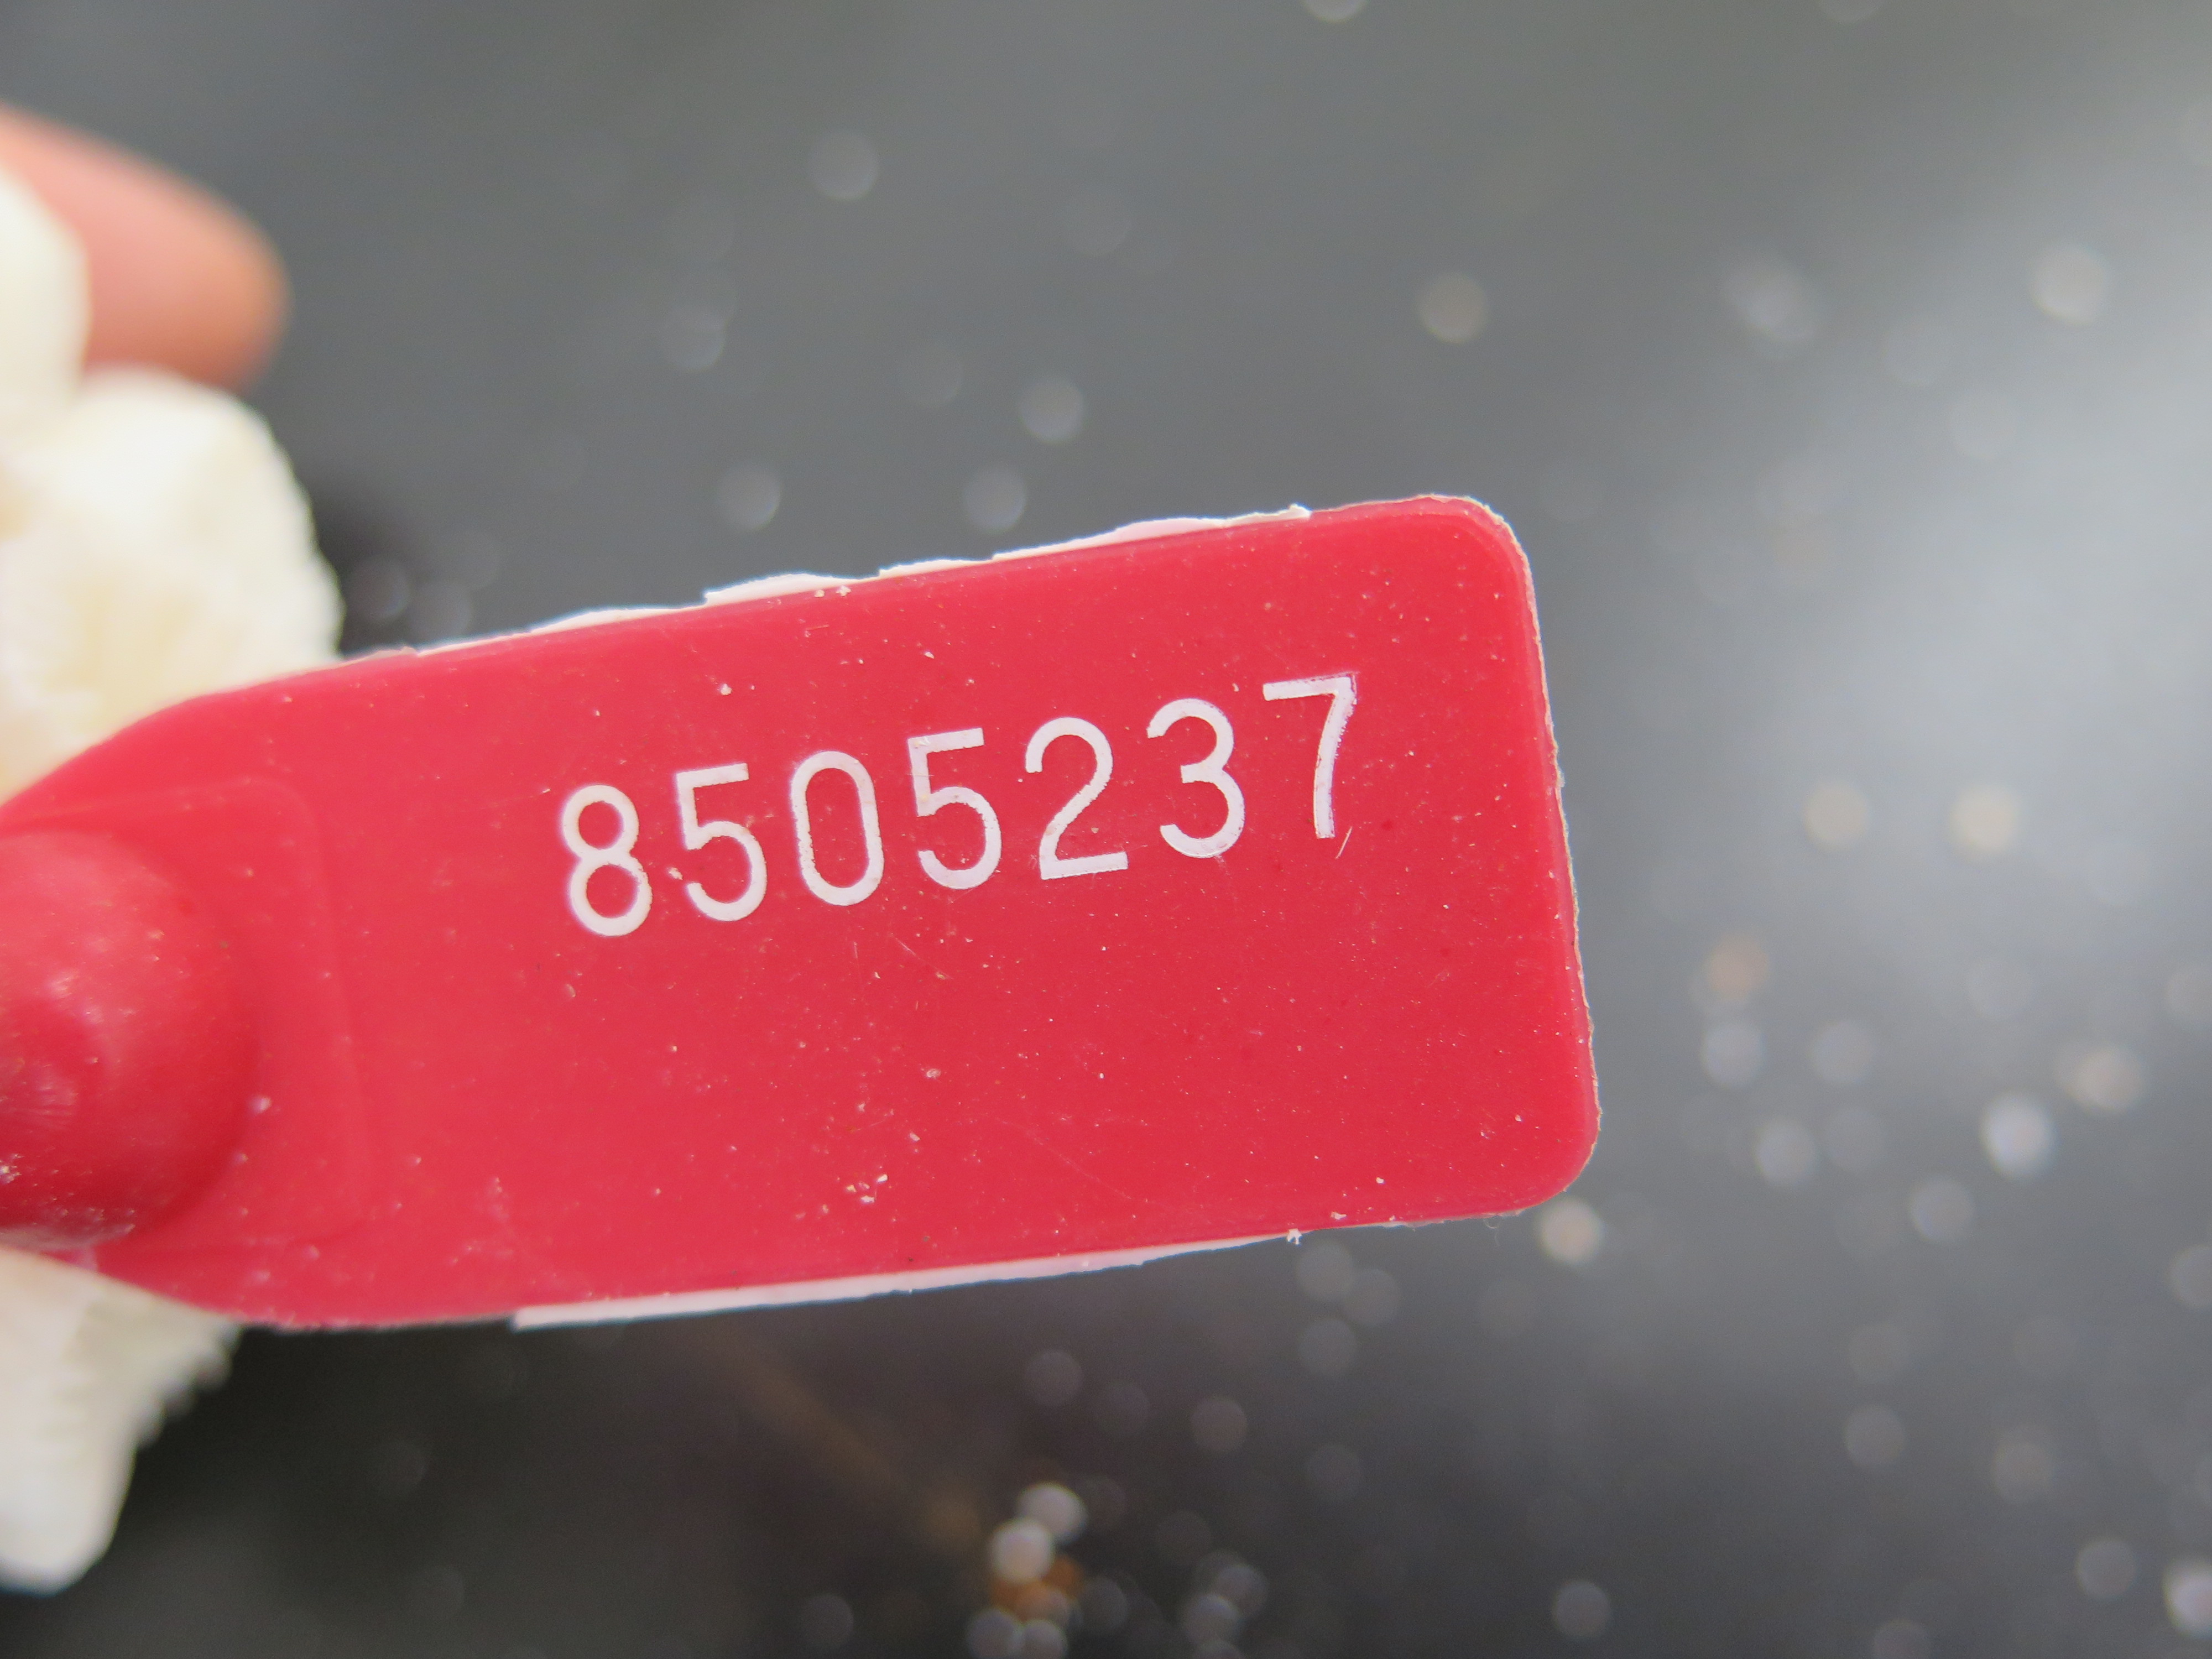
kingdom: Animalia
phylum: Cnidaria
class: Anthozoa
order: Scleractinia
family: Meandrinidae
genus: Meandrina
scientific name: Meandrina danai
